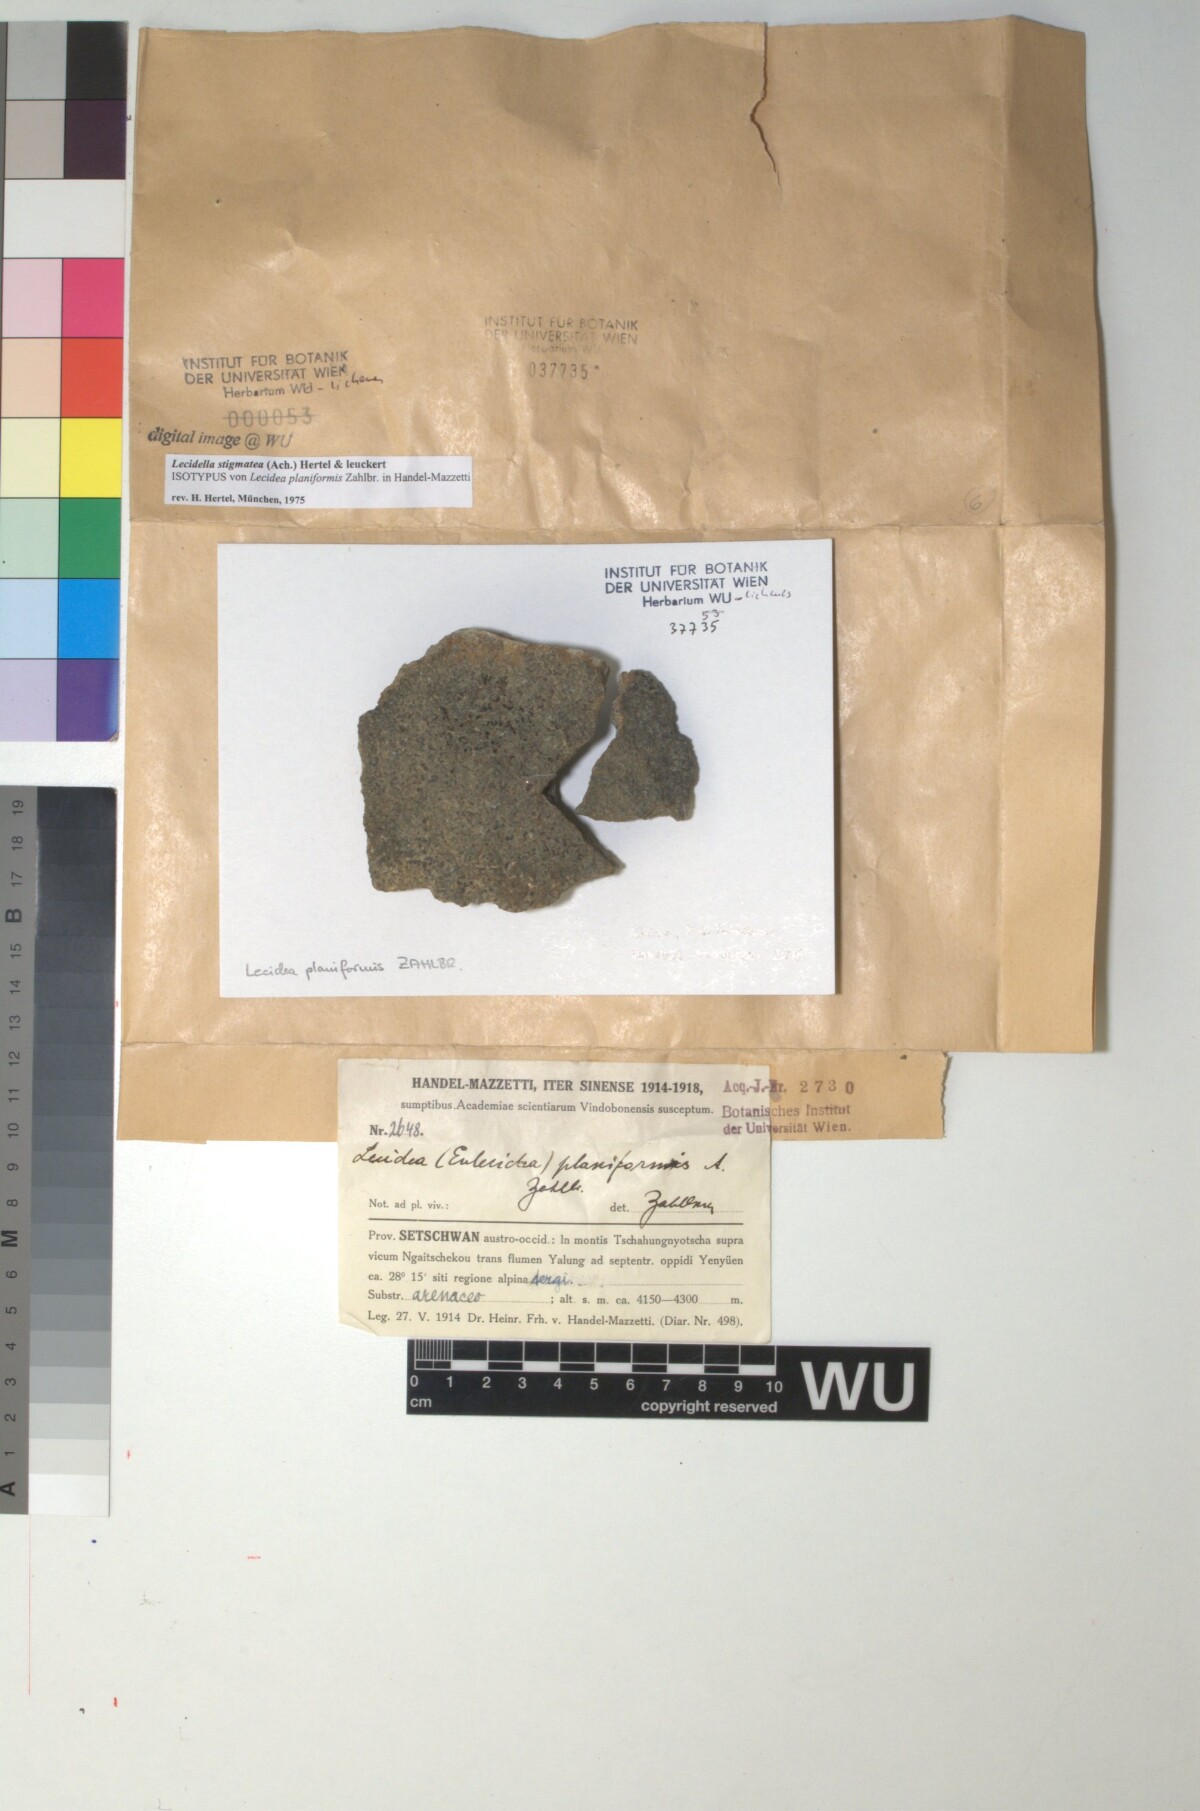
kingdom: Fungi
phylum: Ascomycota
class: Lecanoromycetes
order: Lecanorales
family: Lecanoraceae
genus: Lecidella
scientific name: Lecidella patavina
